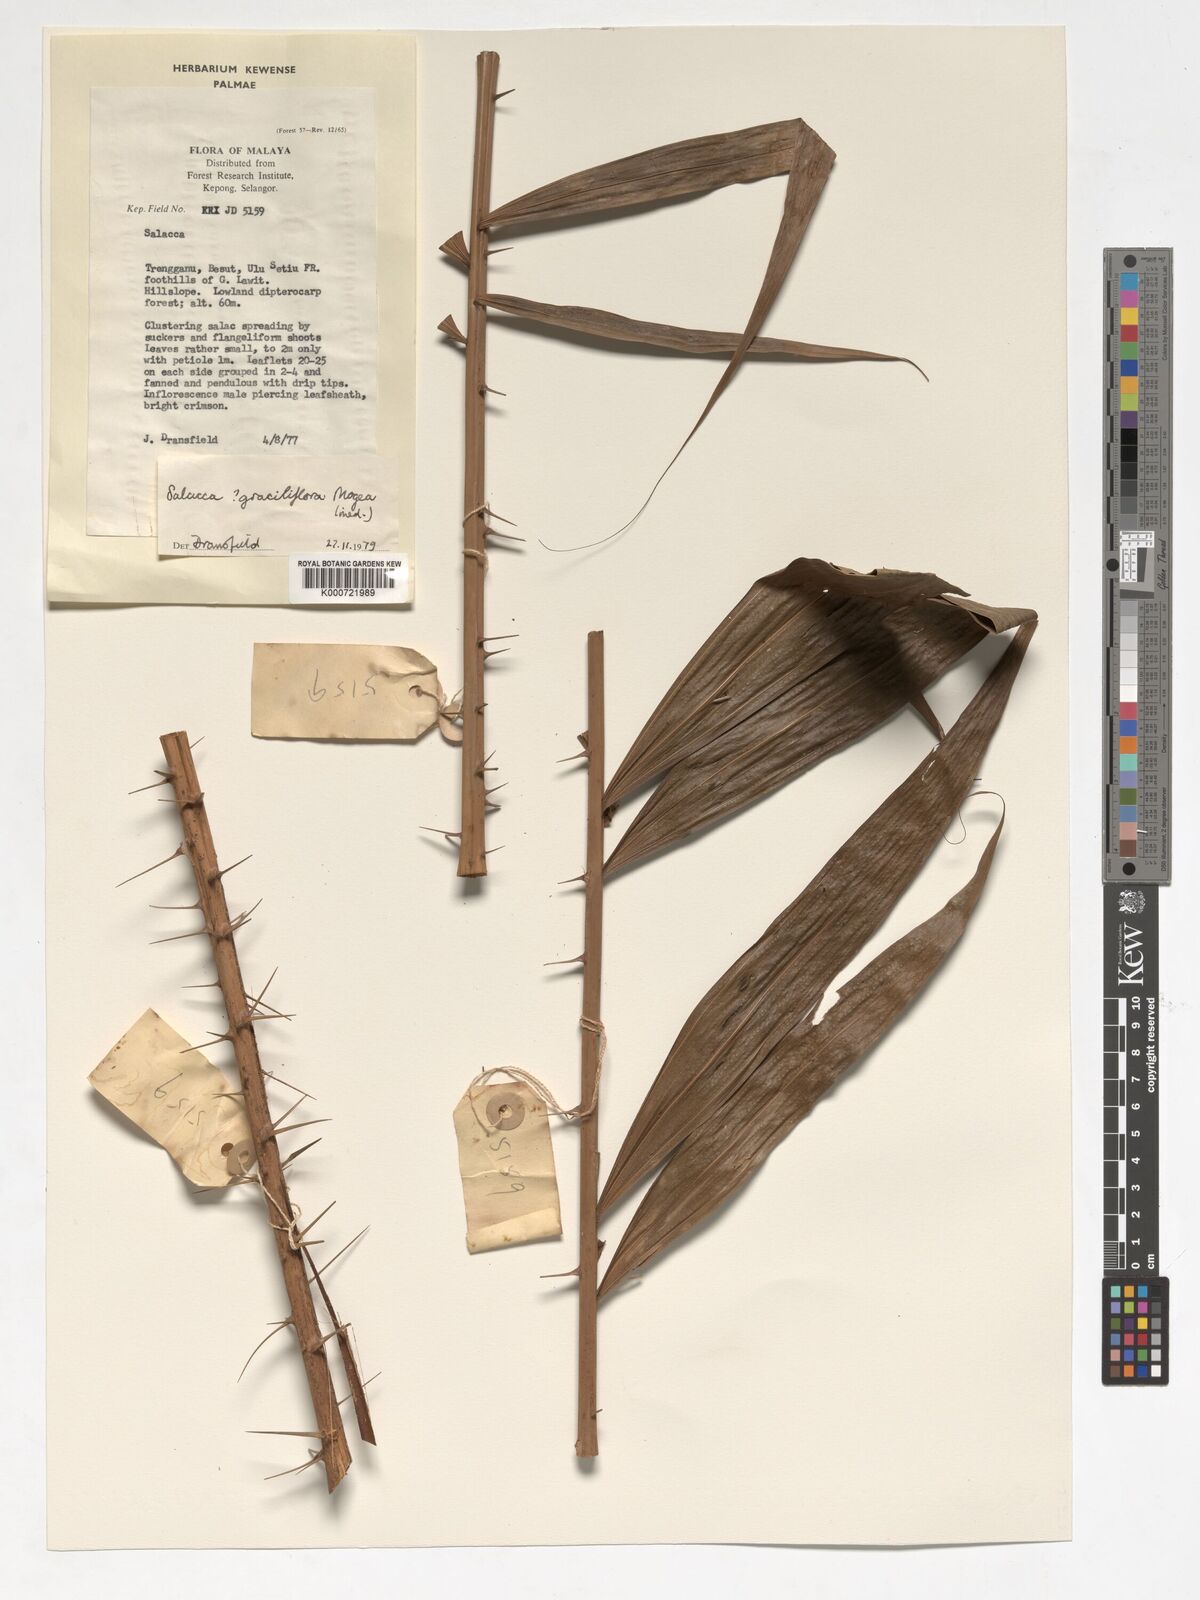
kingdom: Plantae
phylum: Tracheophyta
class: Liliopsida
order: Arecales
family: Arecaceae
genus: Salacca
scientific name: Salacca graciliflora
